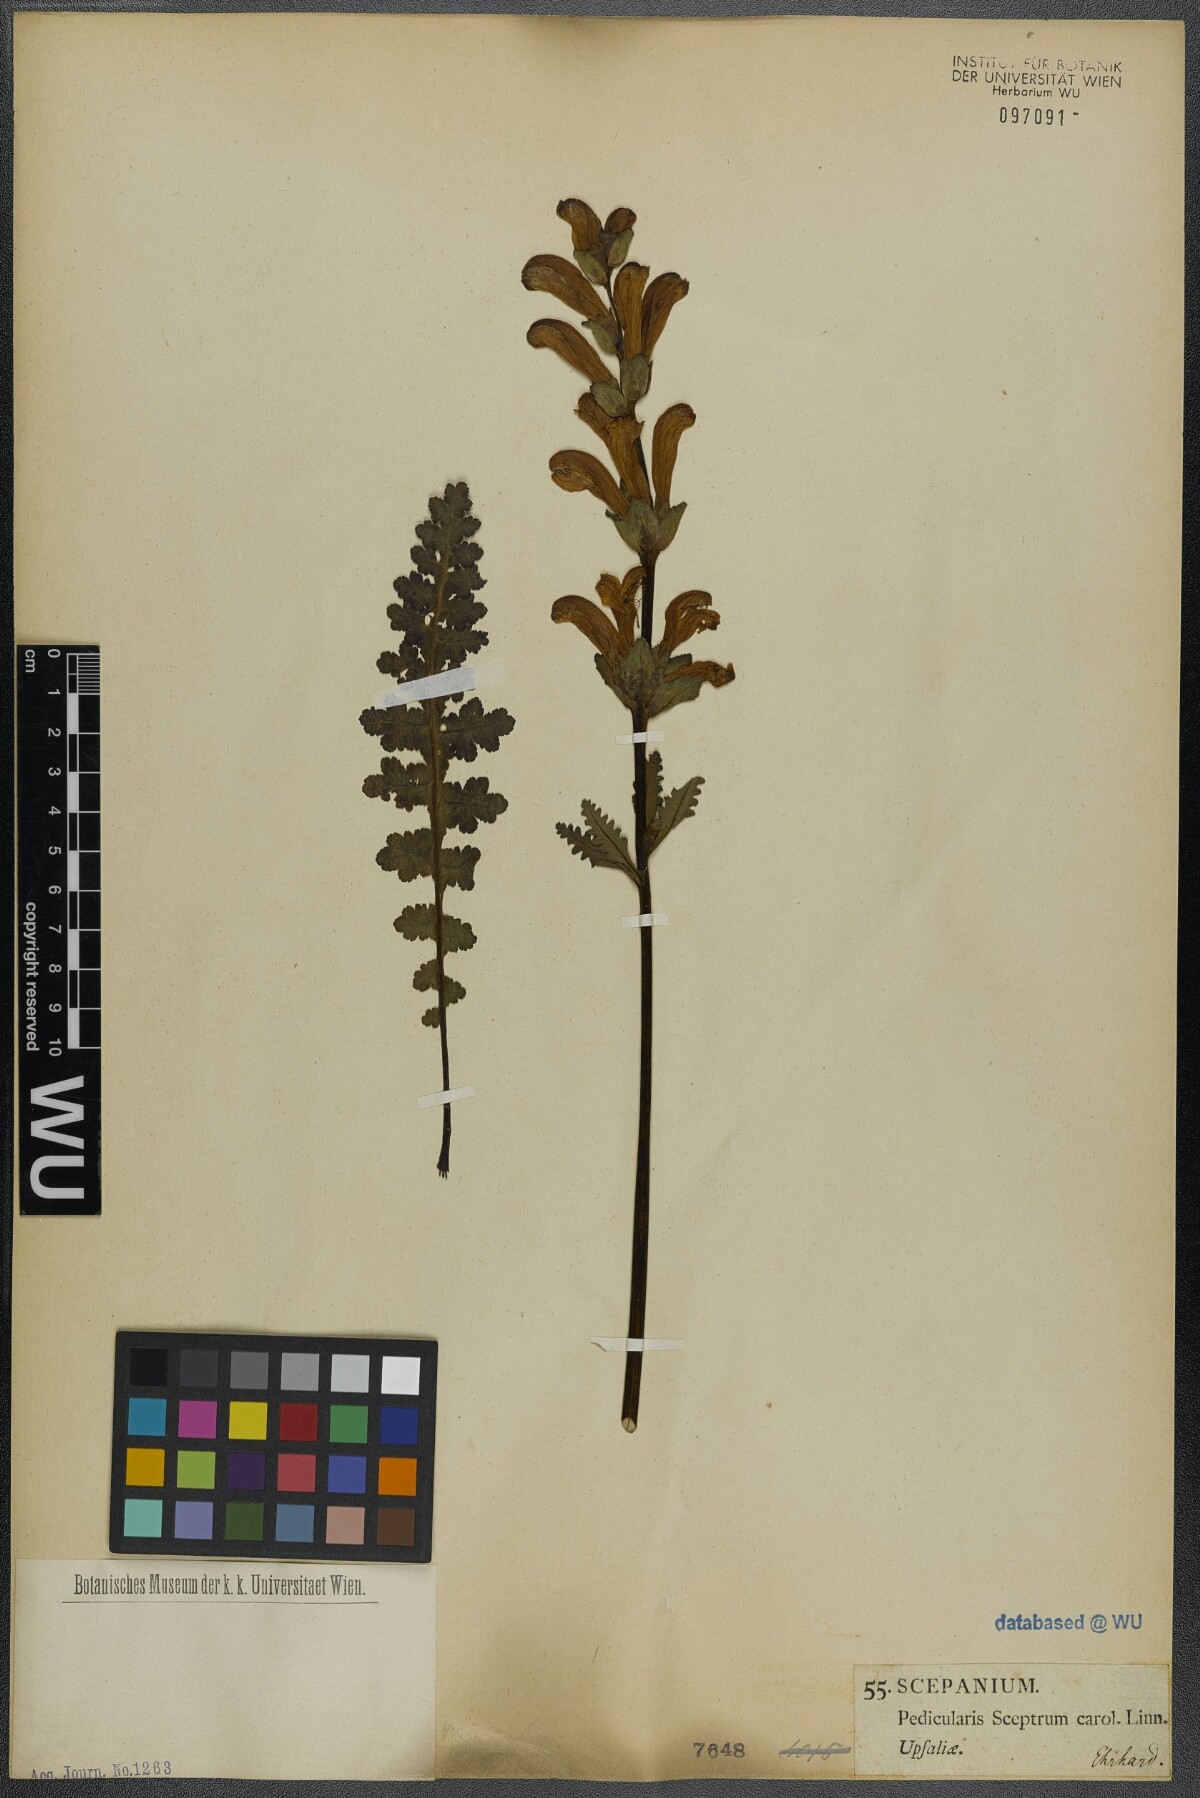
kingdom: Plantae
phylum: Tracheophyta
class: Magnoliopsida
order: Lamiales
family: Orobanchaceae
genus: Pedicularis
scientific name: Pedicularis sceptrum-carolinum
